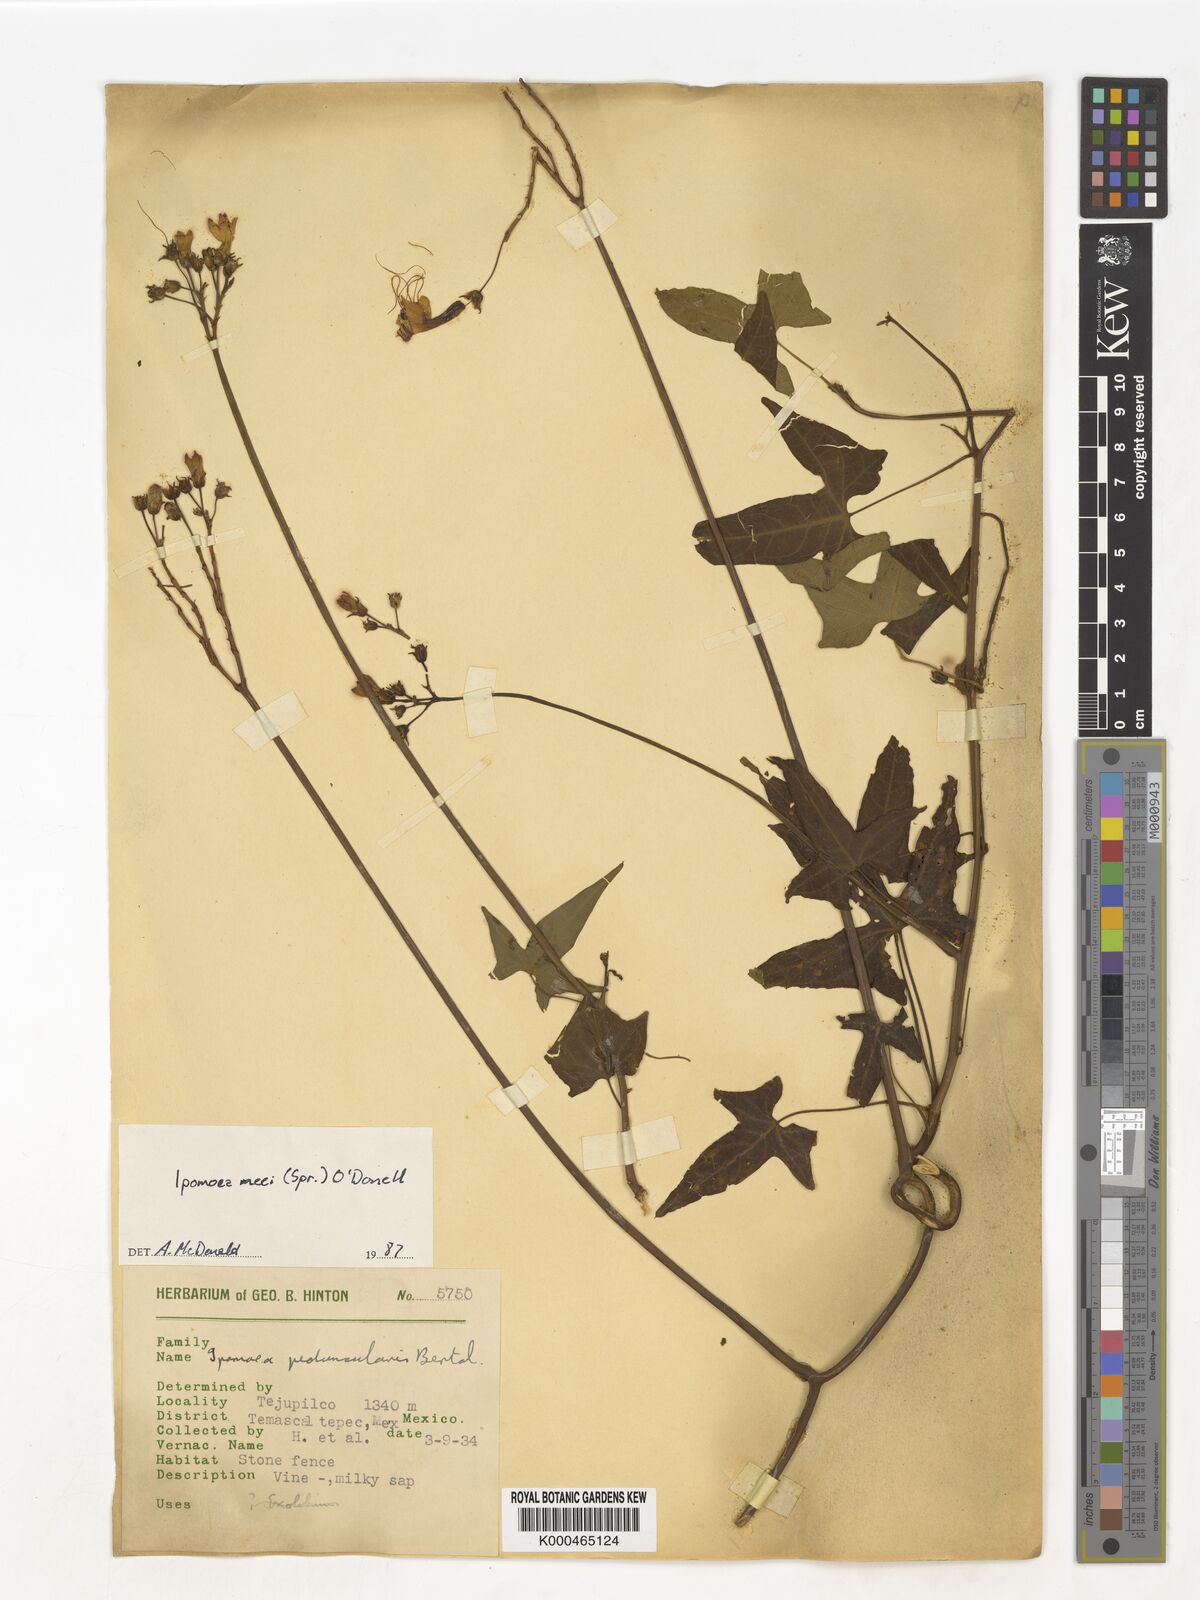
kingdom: Plantae
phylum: Tracheophyta
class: Magnoliopsida
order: Solanales
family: Convolvulaceae
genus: Ipomoea
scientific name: Ipomoea
